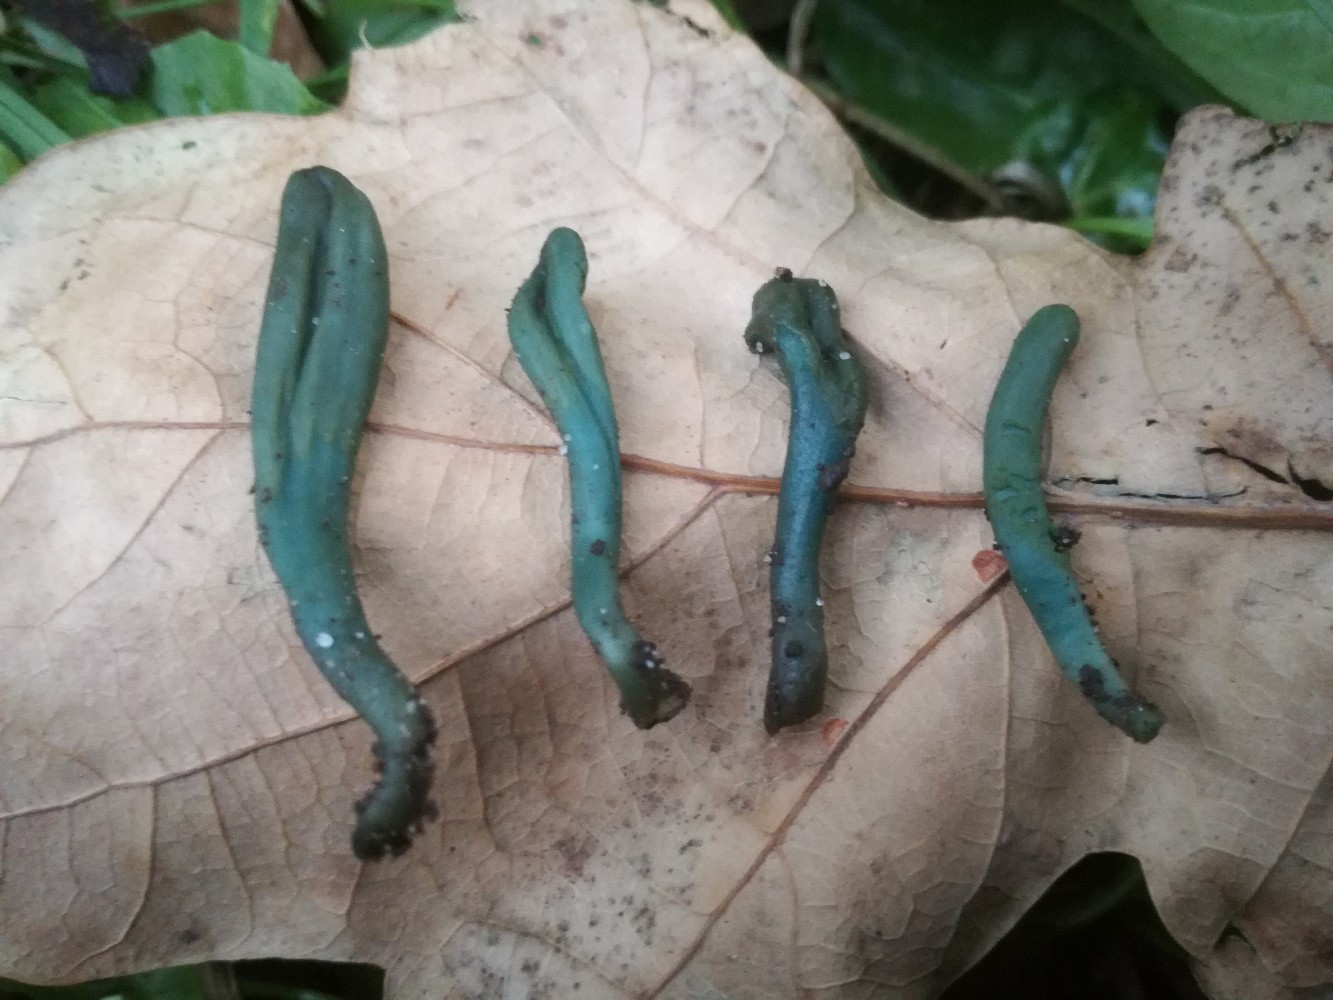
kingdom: Fungi
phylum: Ascomycota
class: Leotiomycetes
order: Helotiales
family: Lachnaceae
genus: Microglossum
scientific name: Microglossum
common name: farvetunge
